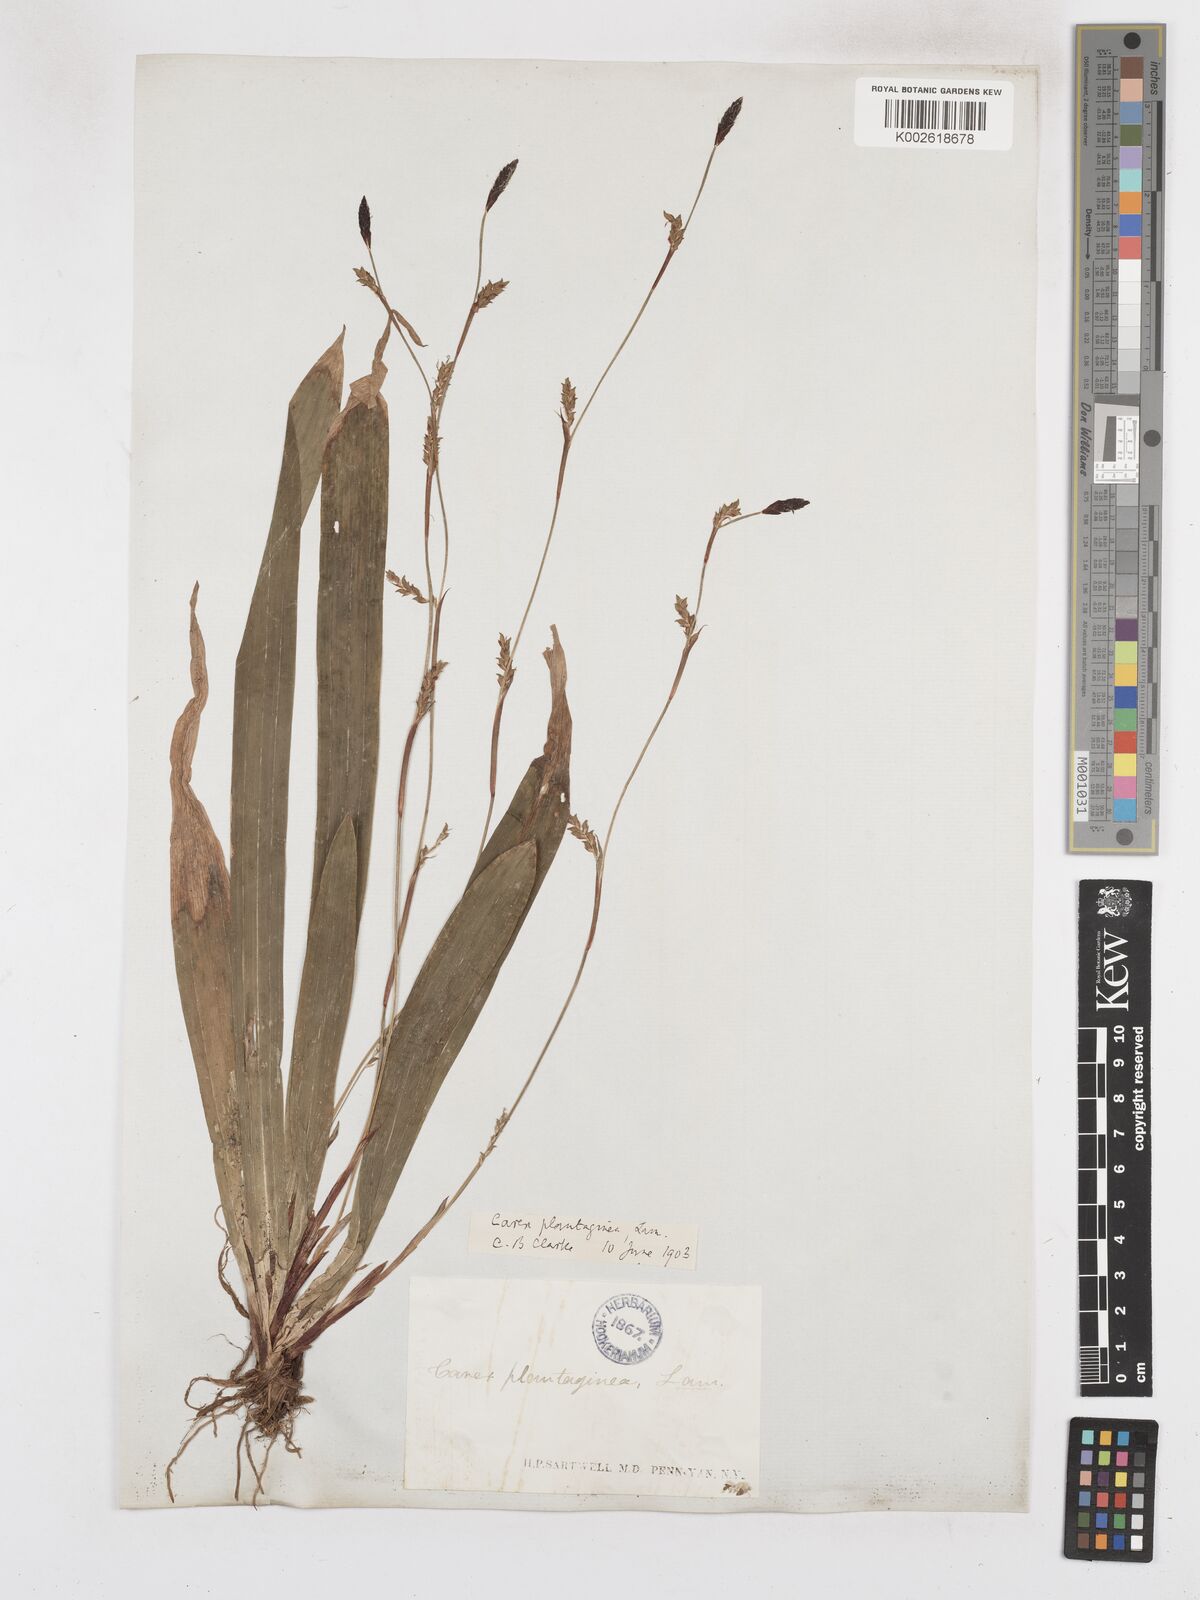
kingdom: Plantae
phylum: Tracheophyta
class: Liliopsida
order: Poales
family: Cyperaceae
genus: Carex
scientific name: Carex plantaginea
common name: Plantain-leaved sedge
